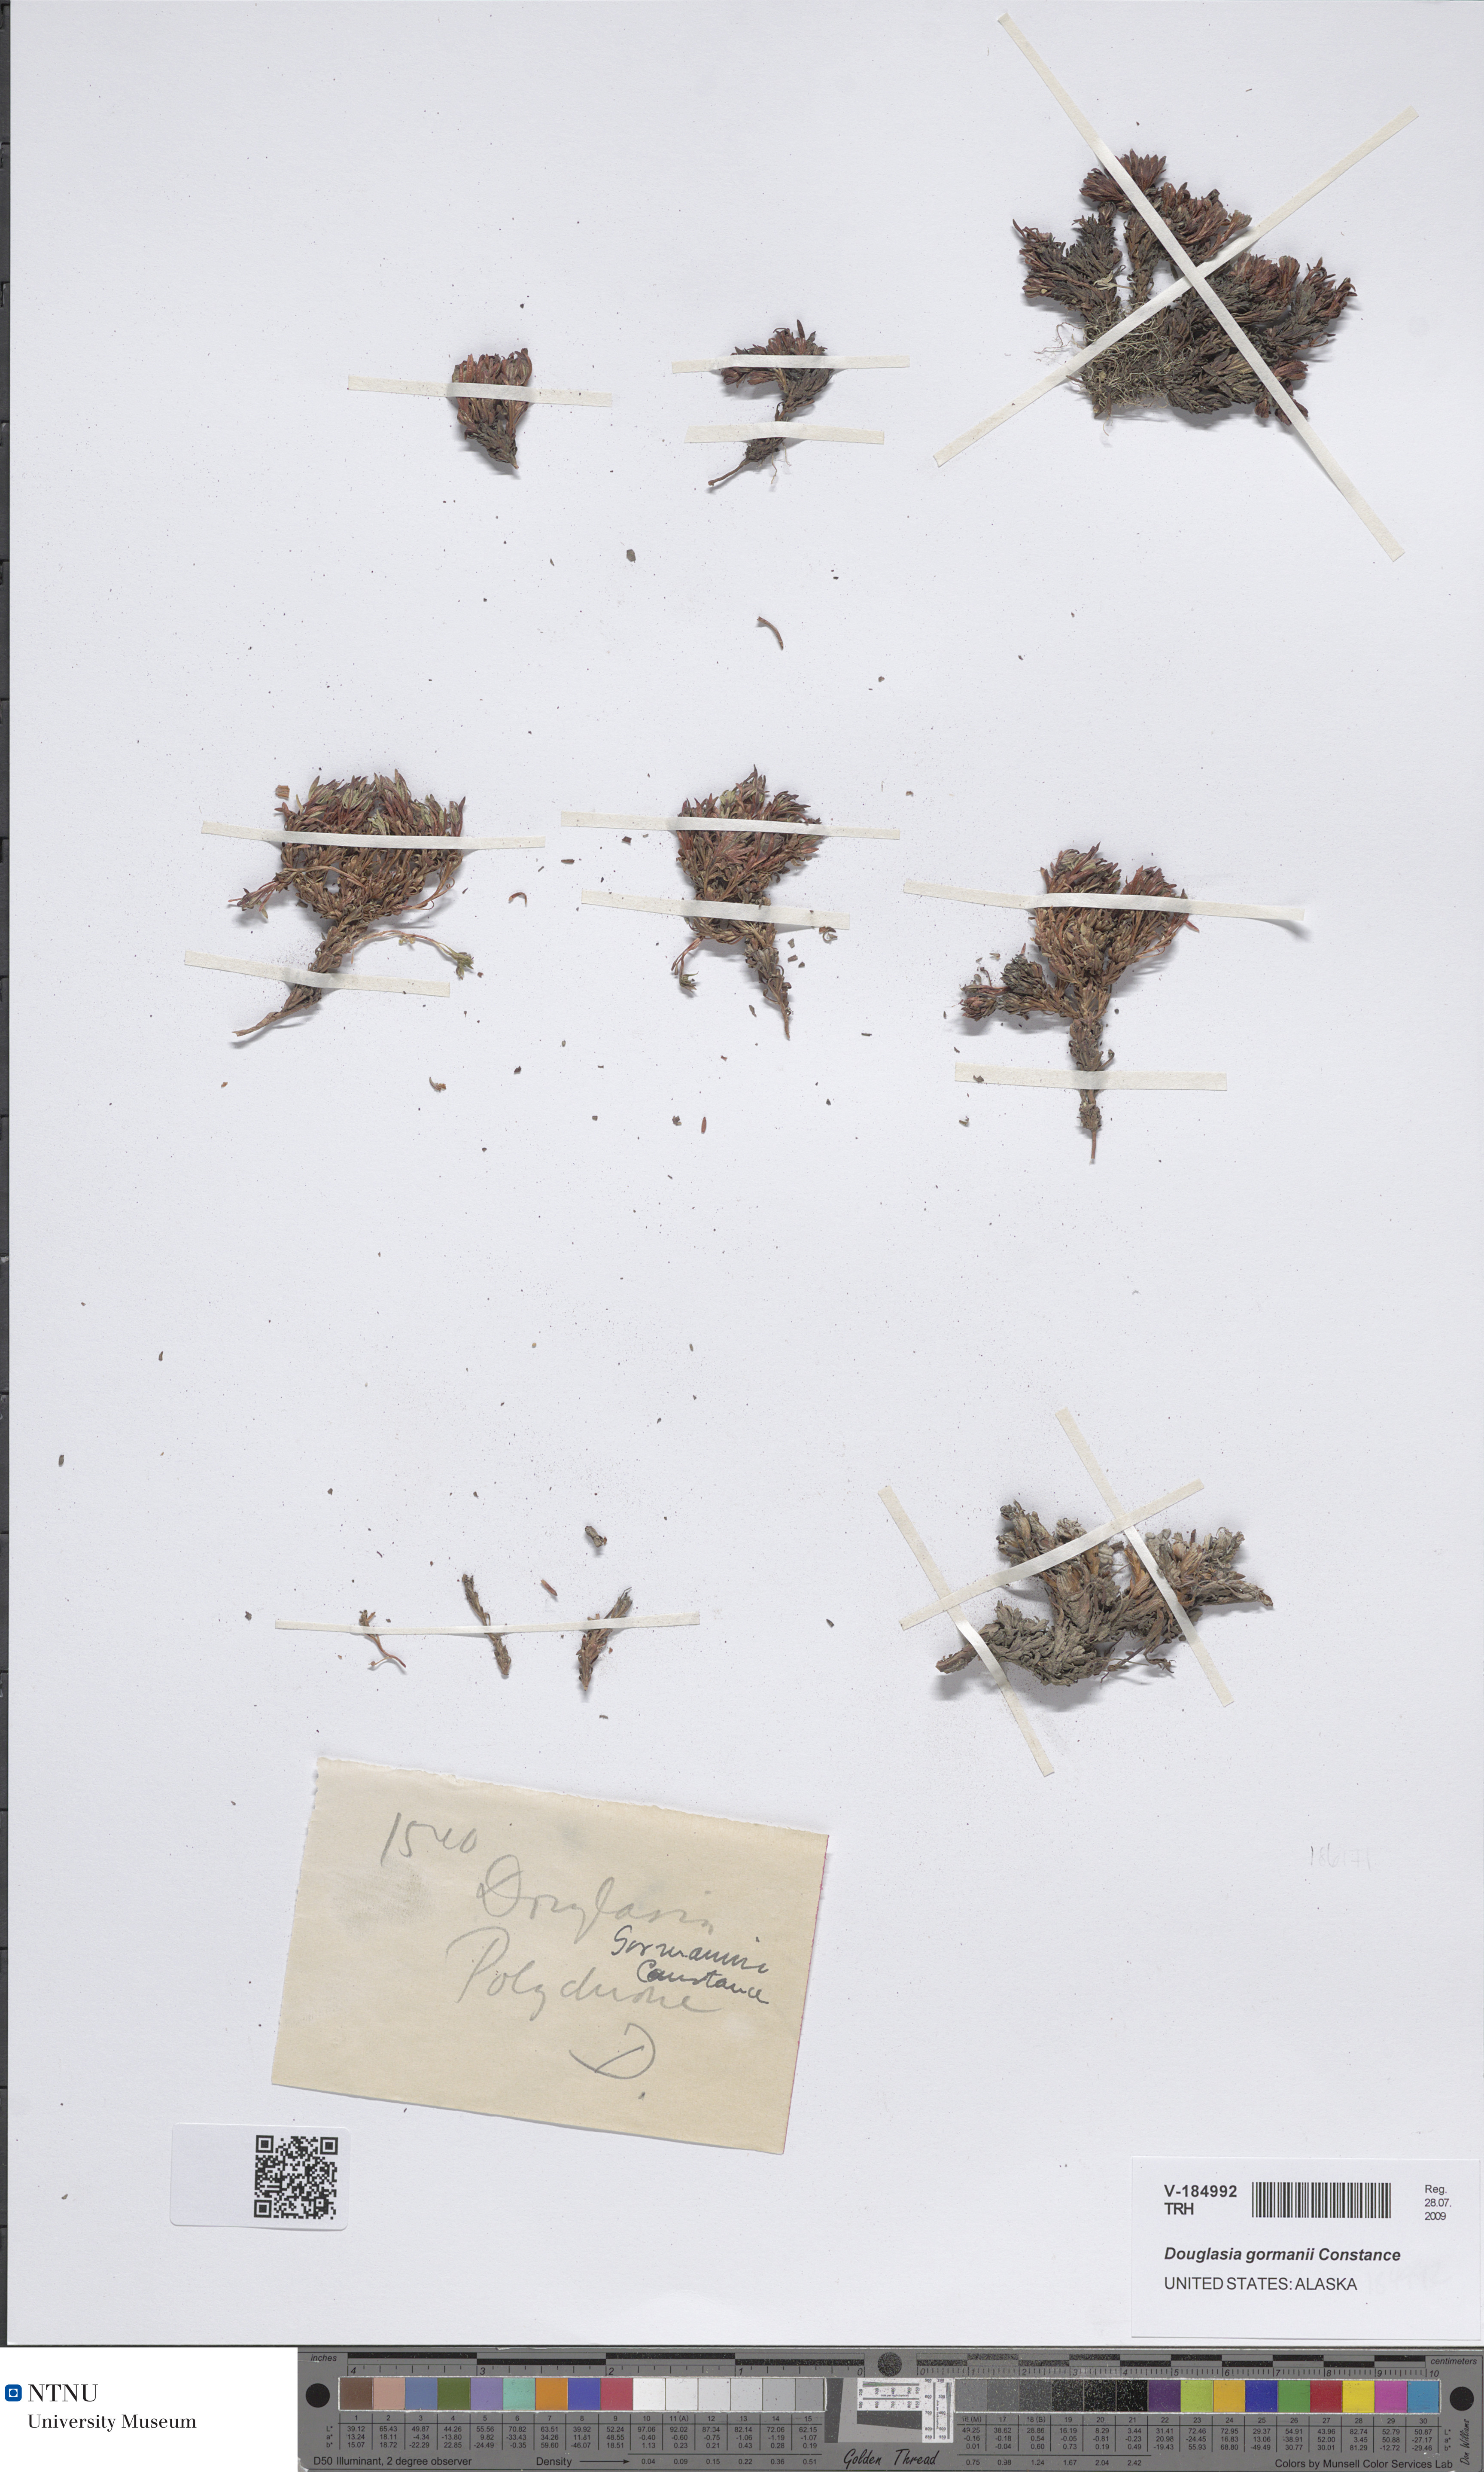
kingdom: Plantae
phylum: Tracheophyta
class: Magnoliopsida
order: Ericales
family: Primulaceae
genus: Androsace
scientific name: Androsace constancei
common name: Gorman's dwarf-primrose
